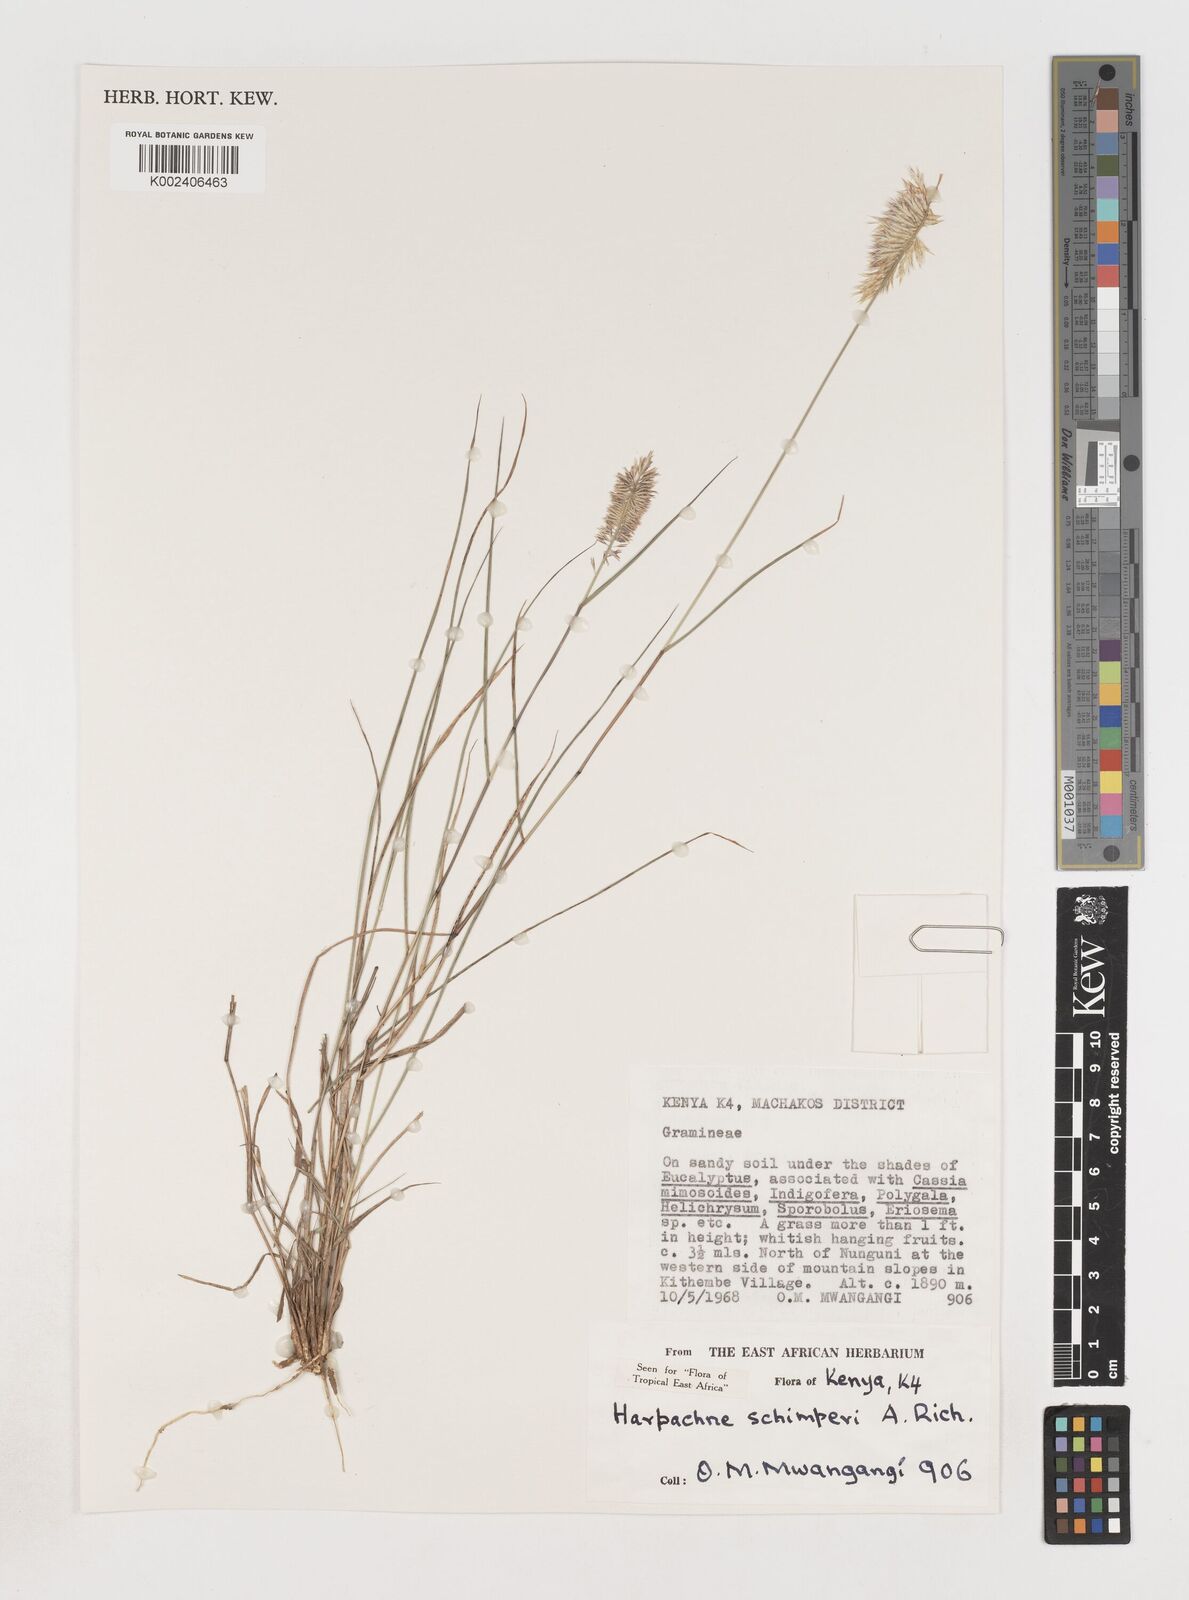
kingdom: Plantae
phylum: Tracheophyta
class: Liliopsida
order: Poales
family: Poaceae
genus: Harpachne
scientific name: Harpachne schimperi
